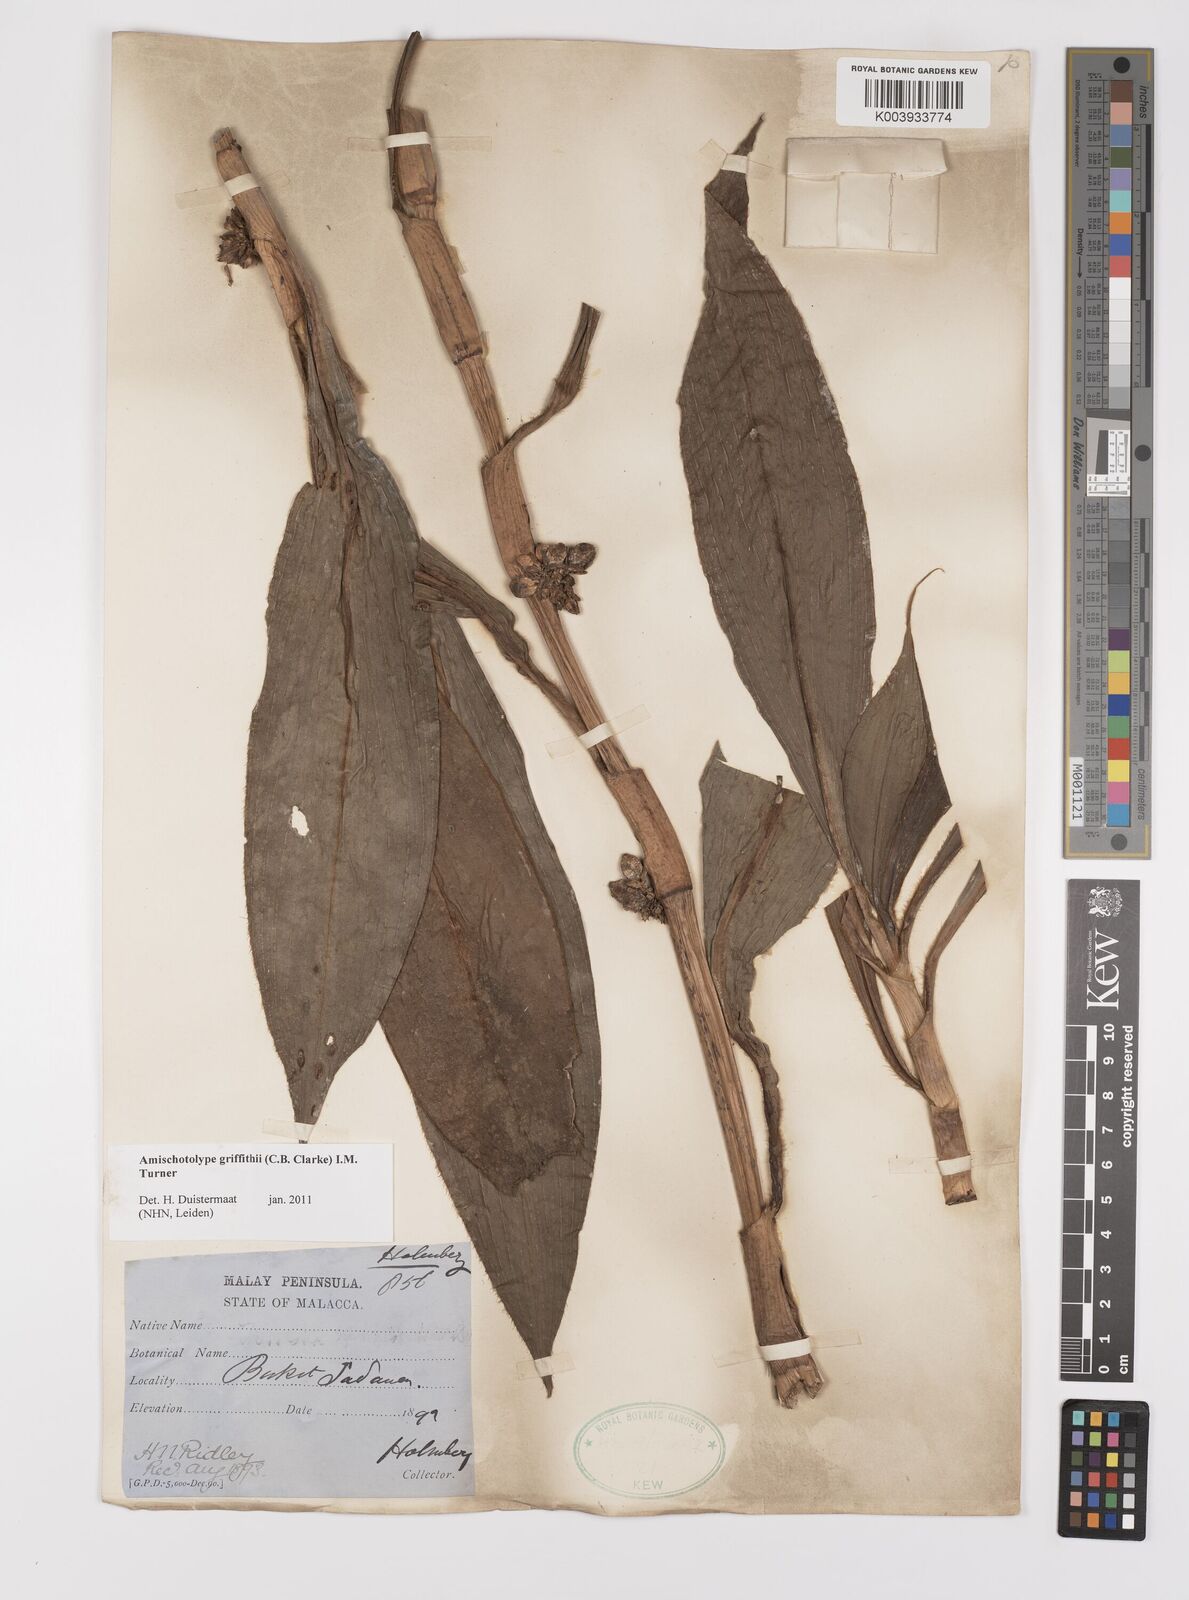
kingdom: Plantae
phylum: Tracheophyta
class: Liliopsida
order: Commelinales
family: Commelinaceae
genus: Amischotolype
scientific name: Amischotolype griffithii
